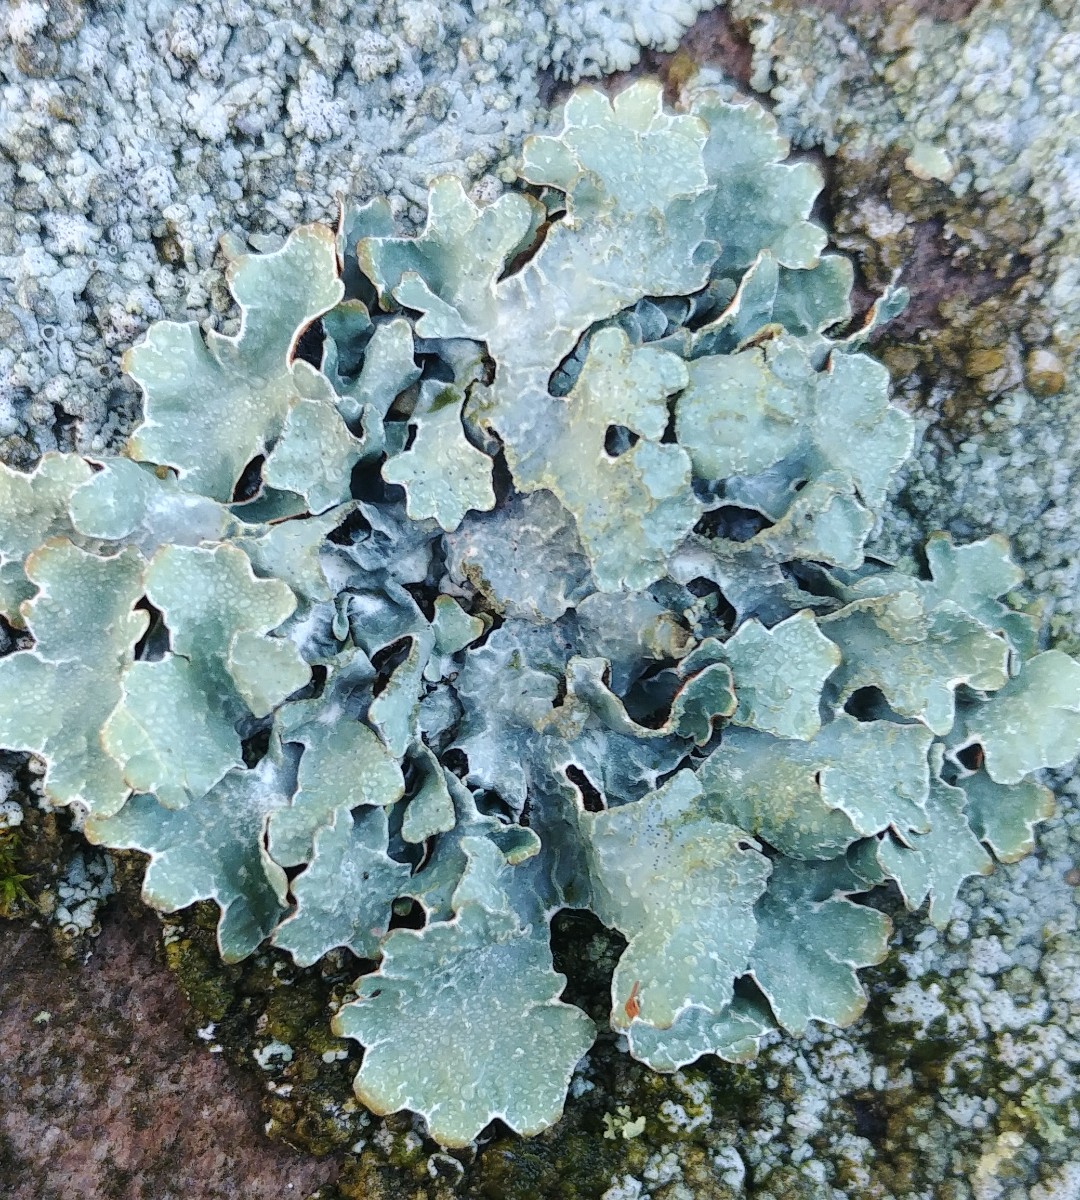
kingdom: Fungi
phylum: Ascomycota
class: Lecanoromycetes
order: Lecanorales
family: Parmeliaceae
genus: Parmelia
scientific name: Parmelia sulcata
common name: rynket skållav
